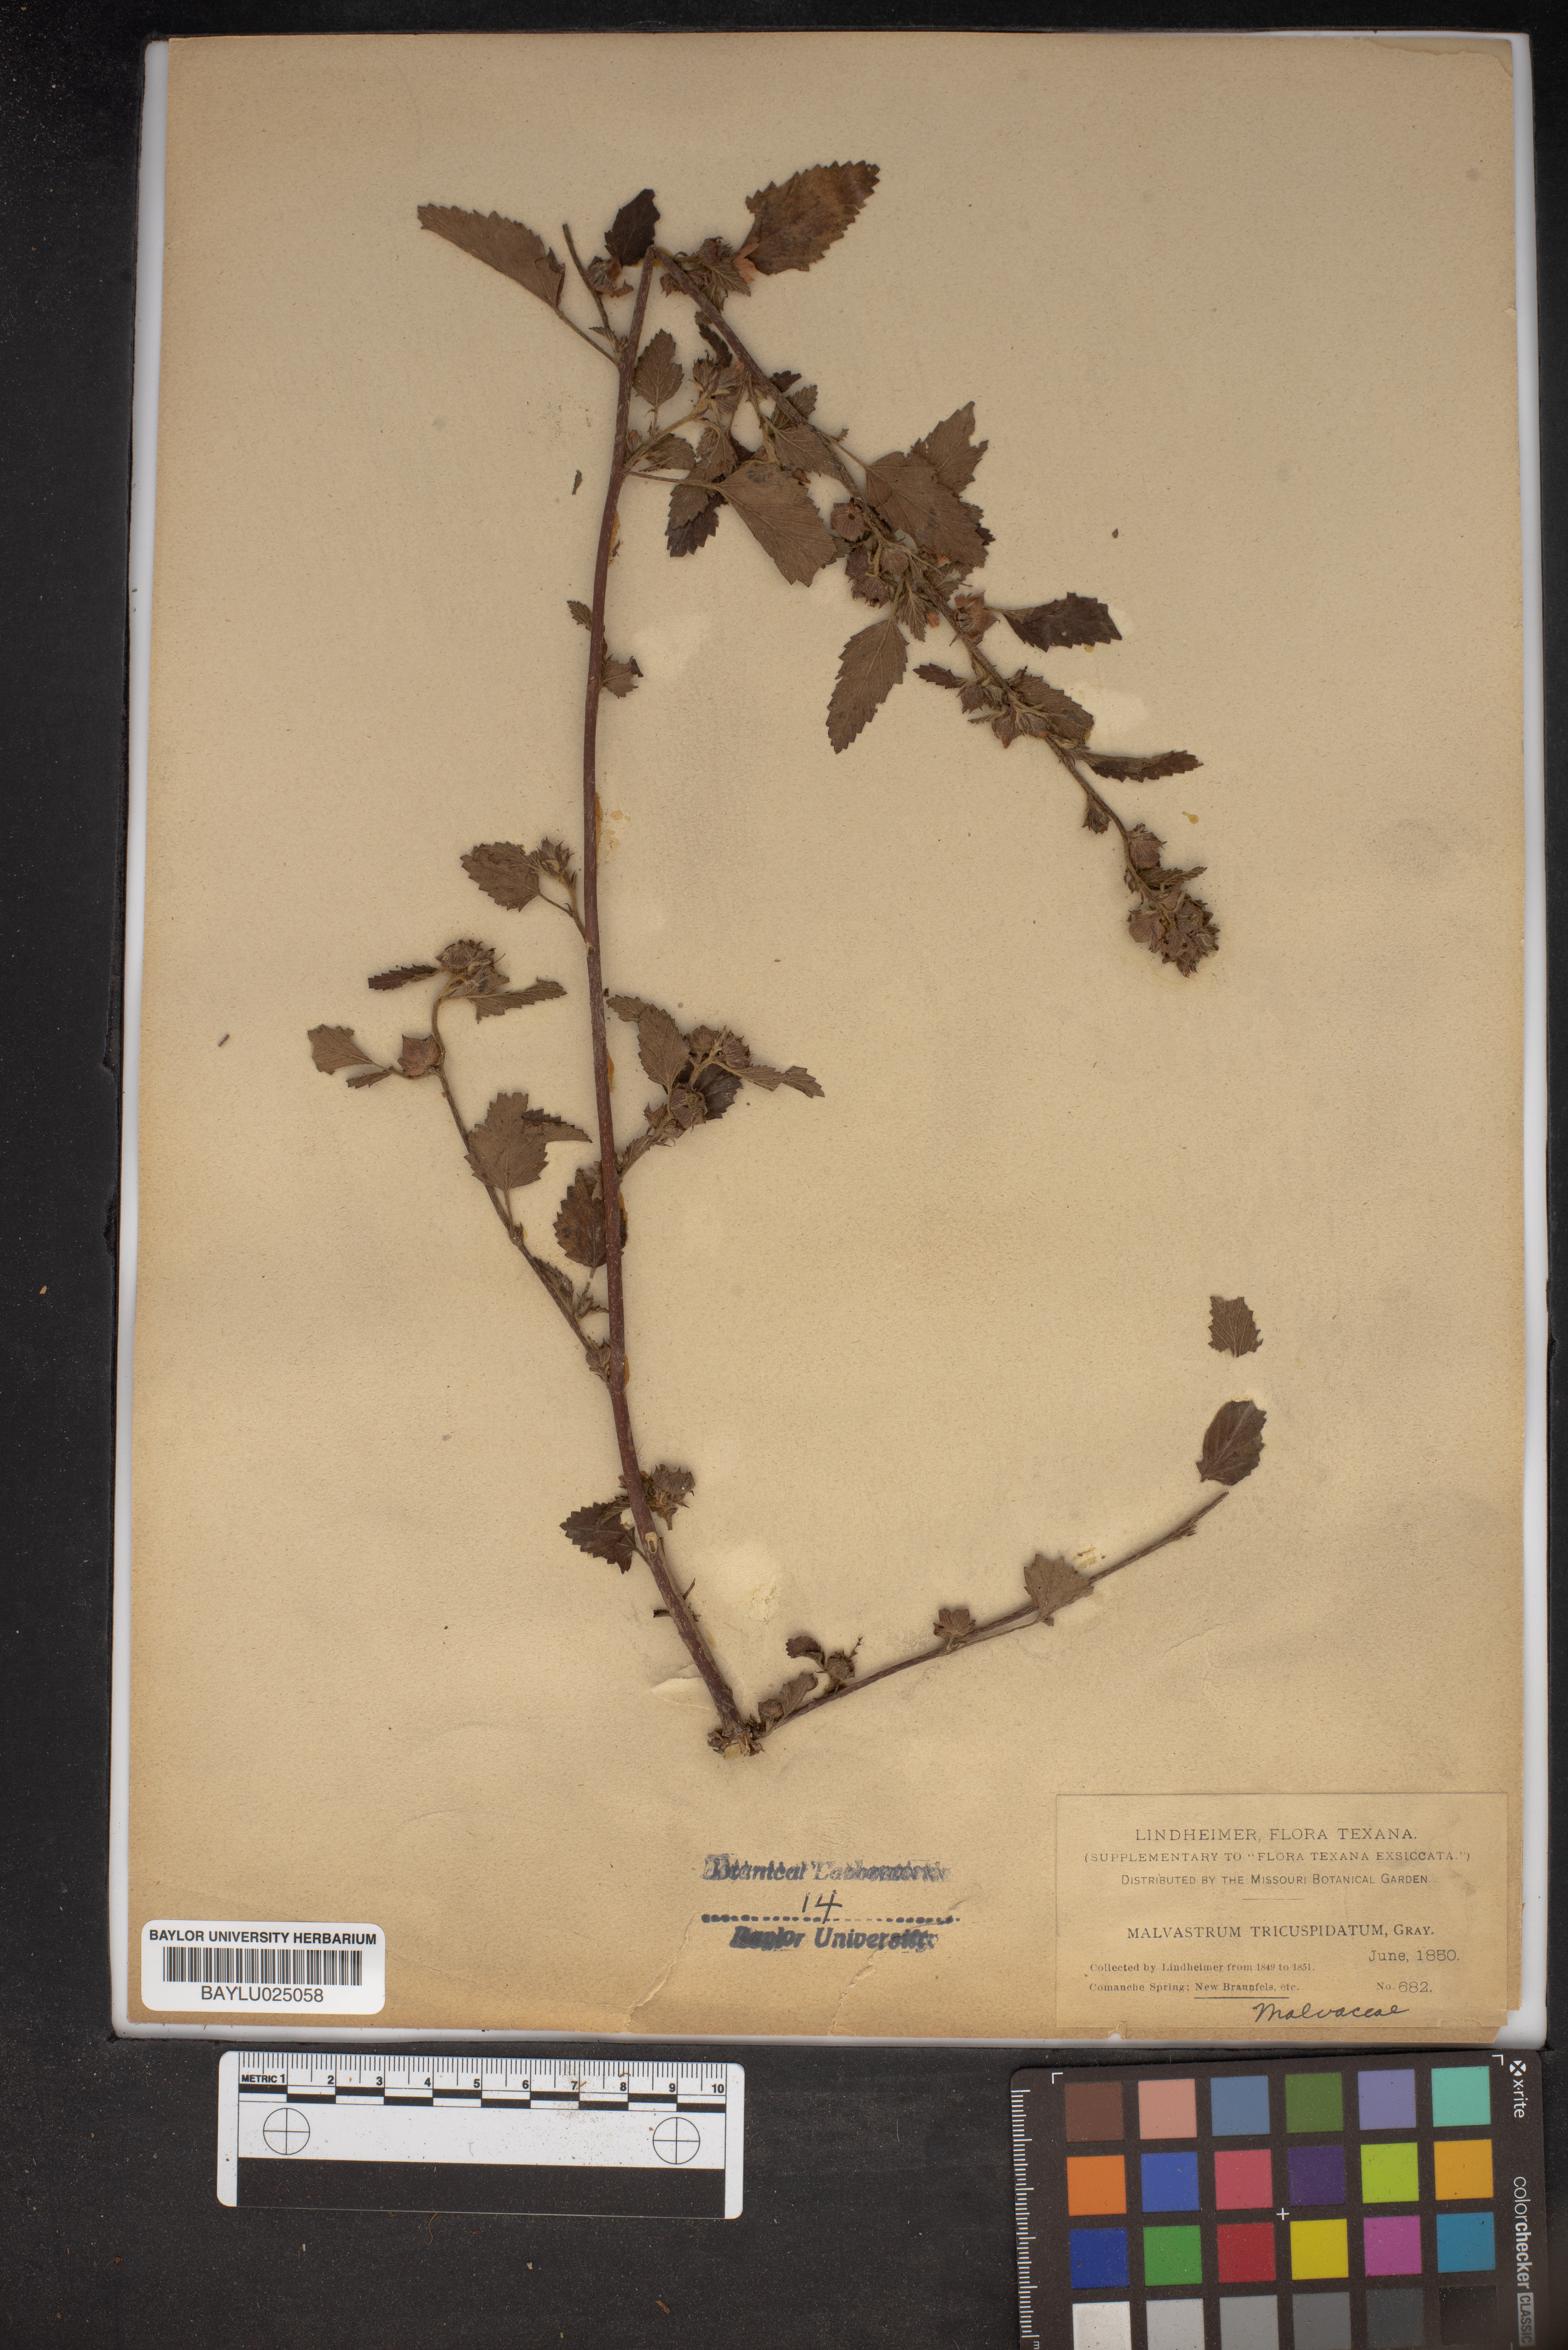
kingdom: Plantae
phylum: Tracheophyta
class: Magnoliopsida
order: Malvales
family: Malvaceae
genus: Malvastrum
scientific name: Malvastrum coromandelianum
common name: Threelobe false mallow
